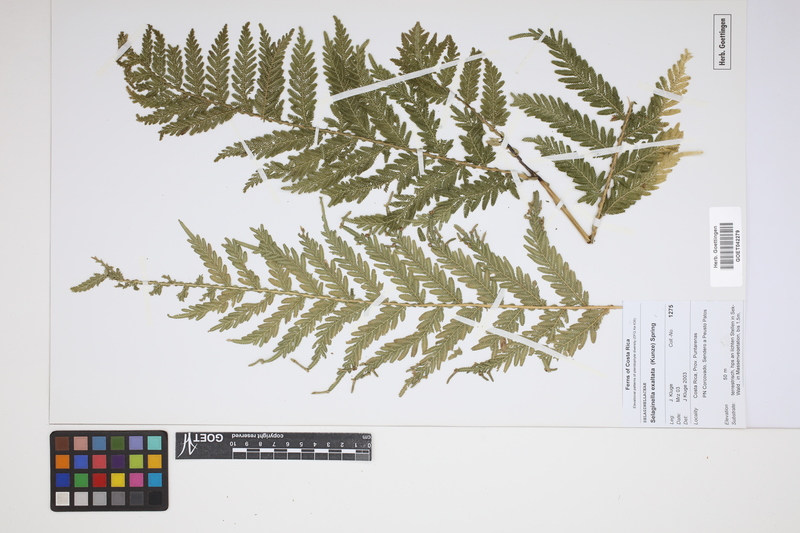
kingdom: Plantae
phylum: Tracheophyta
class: Lycopodiopsida
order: Selaginellales
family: Selaginellaceae
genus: Selaginella
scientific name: Selaginella exaltata
